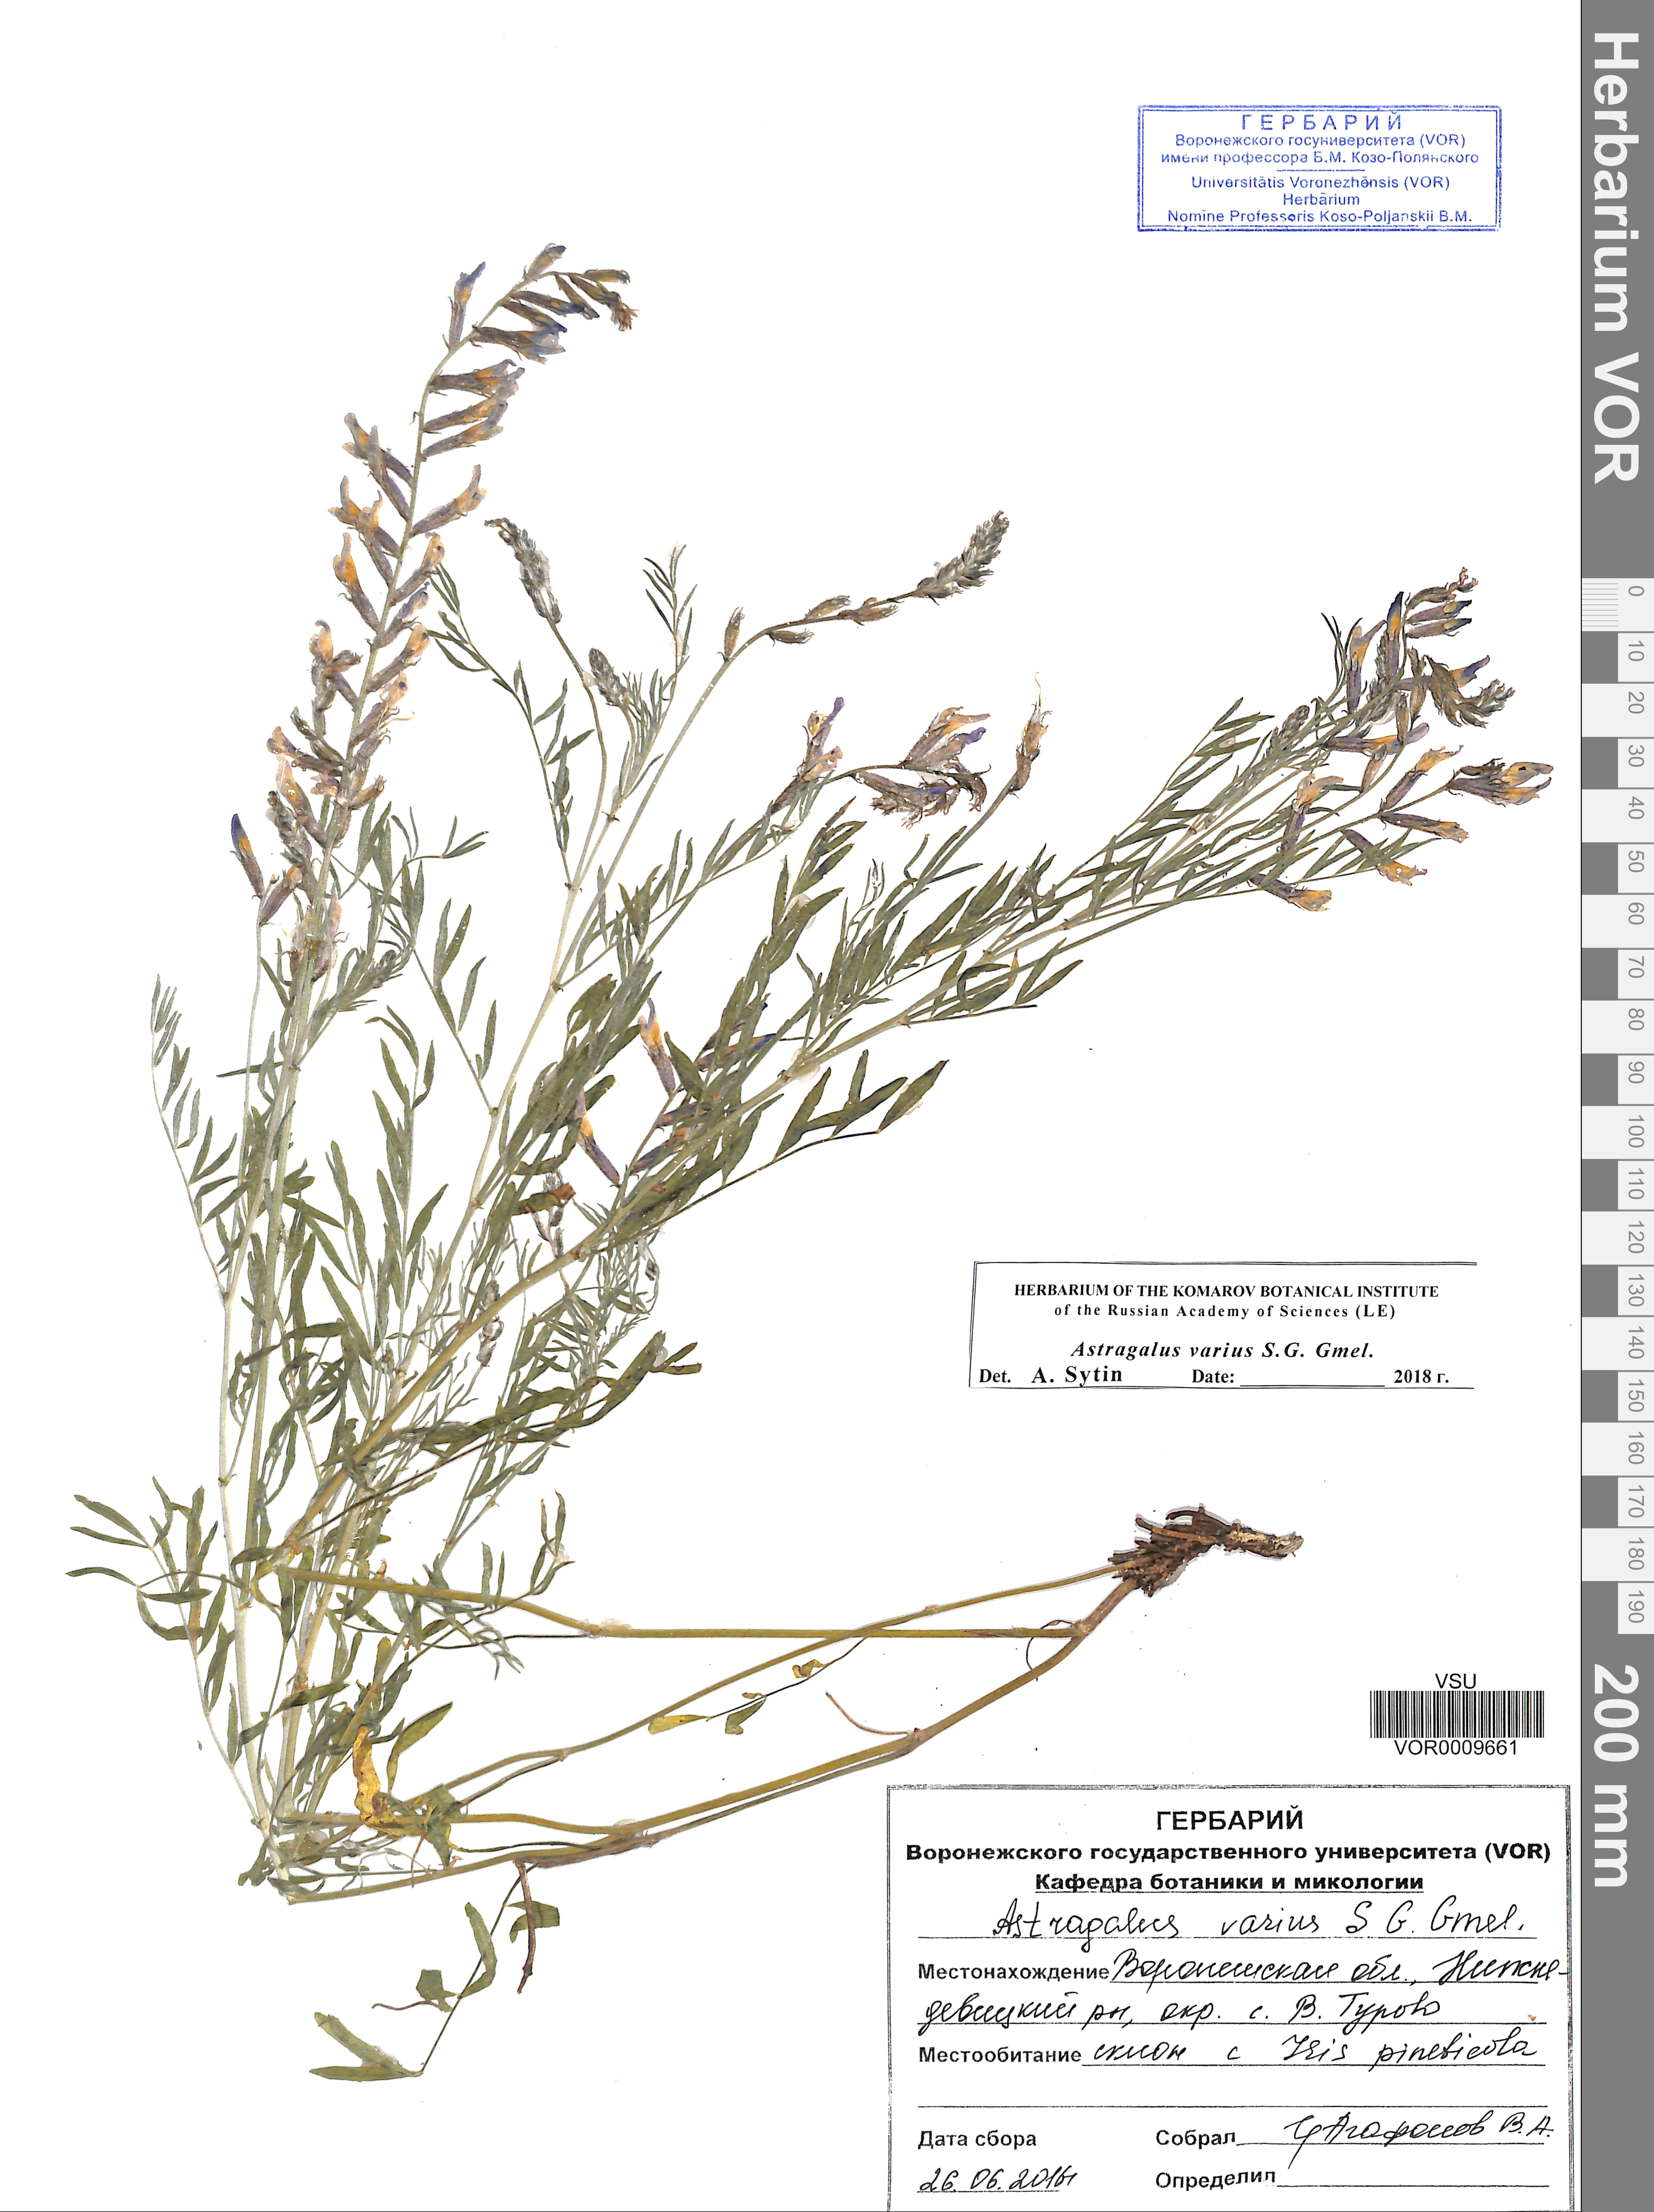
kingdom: Plantae
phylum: Tracheophyta
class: Magnoliopsida
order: Fabales
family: Fabaceae
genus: Astragalus
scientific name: Astragalus varius
